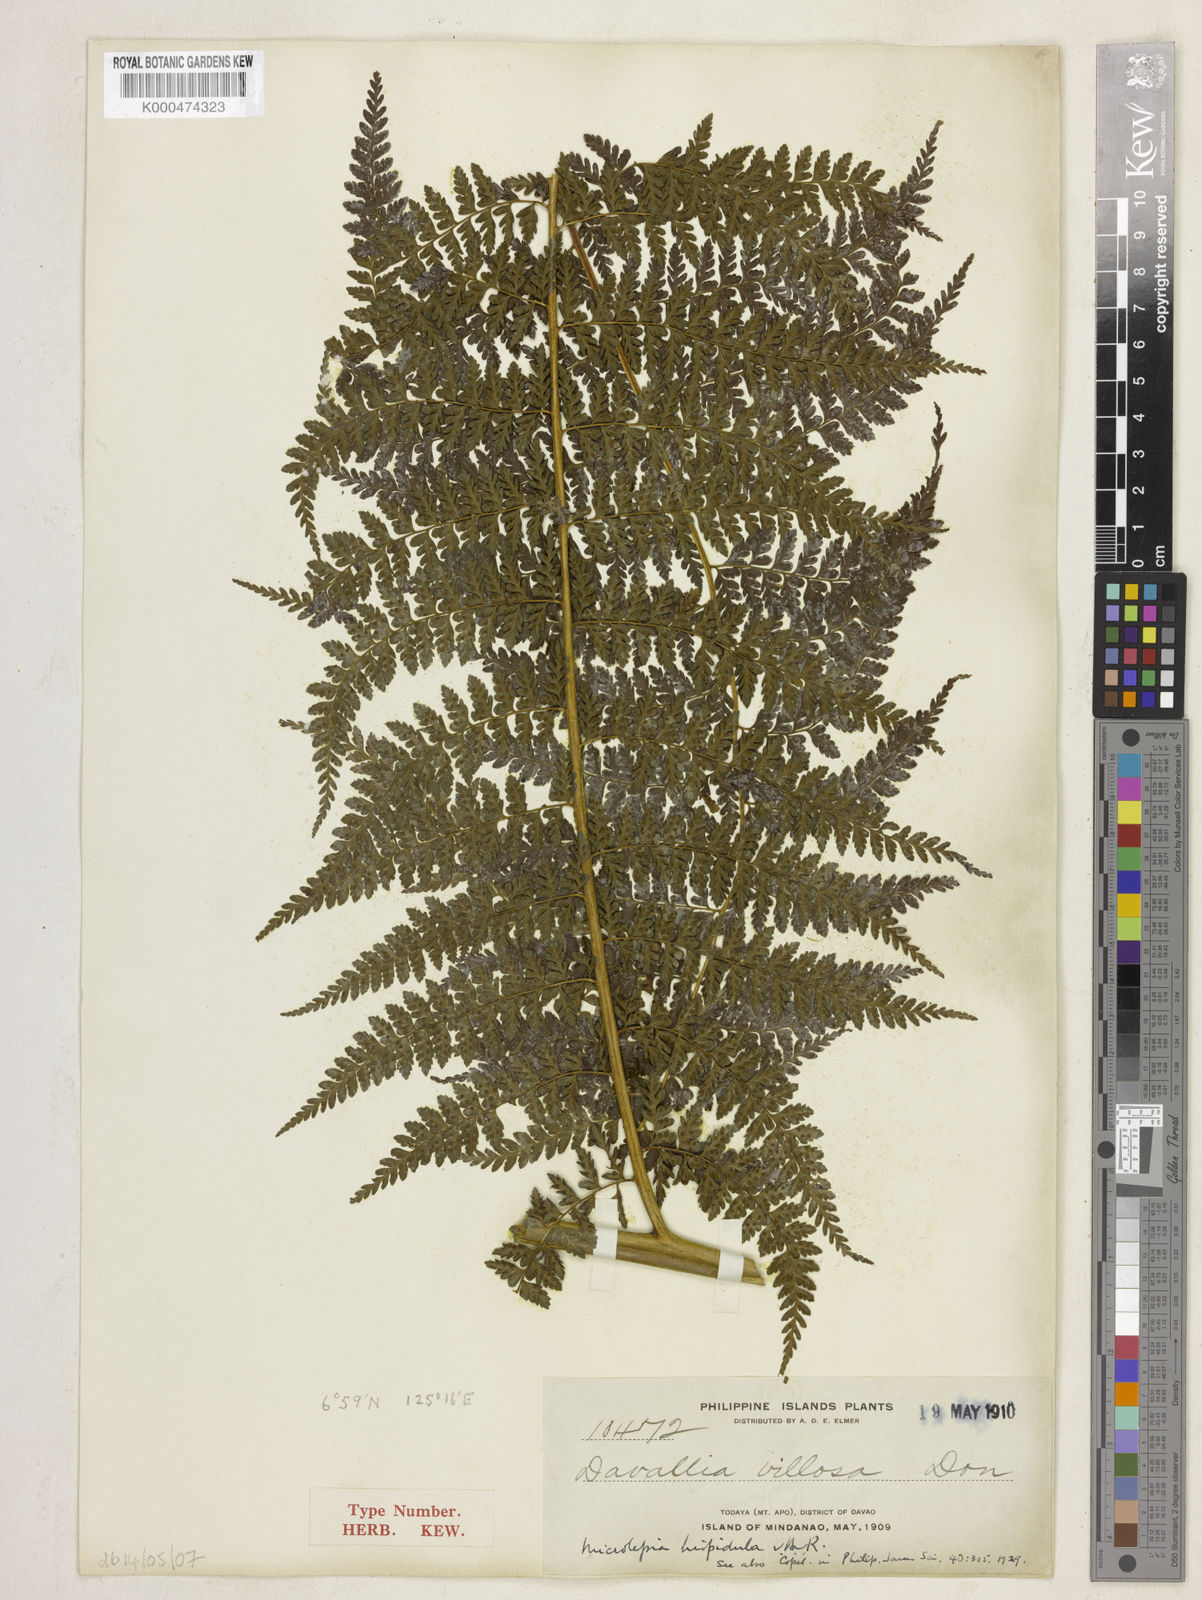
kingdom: Plantae
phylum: Tracheophyta
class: Polypodiopsida
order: Polypodiales
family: Dennstaedtiaceae
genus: Microlepia
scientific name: Microlepia todayensis
